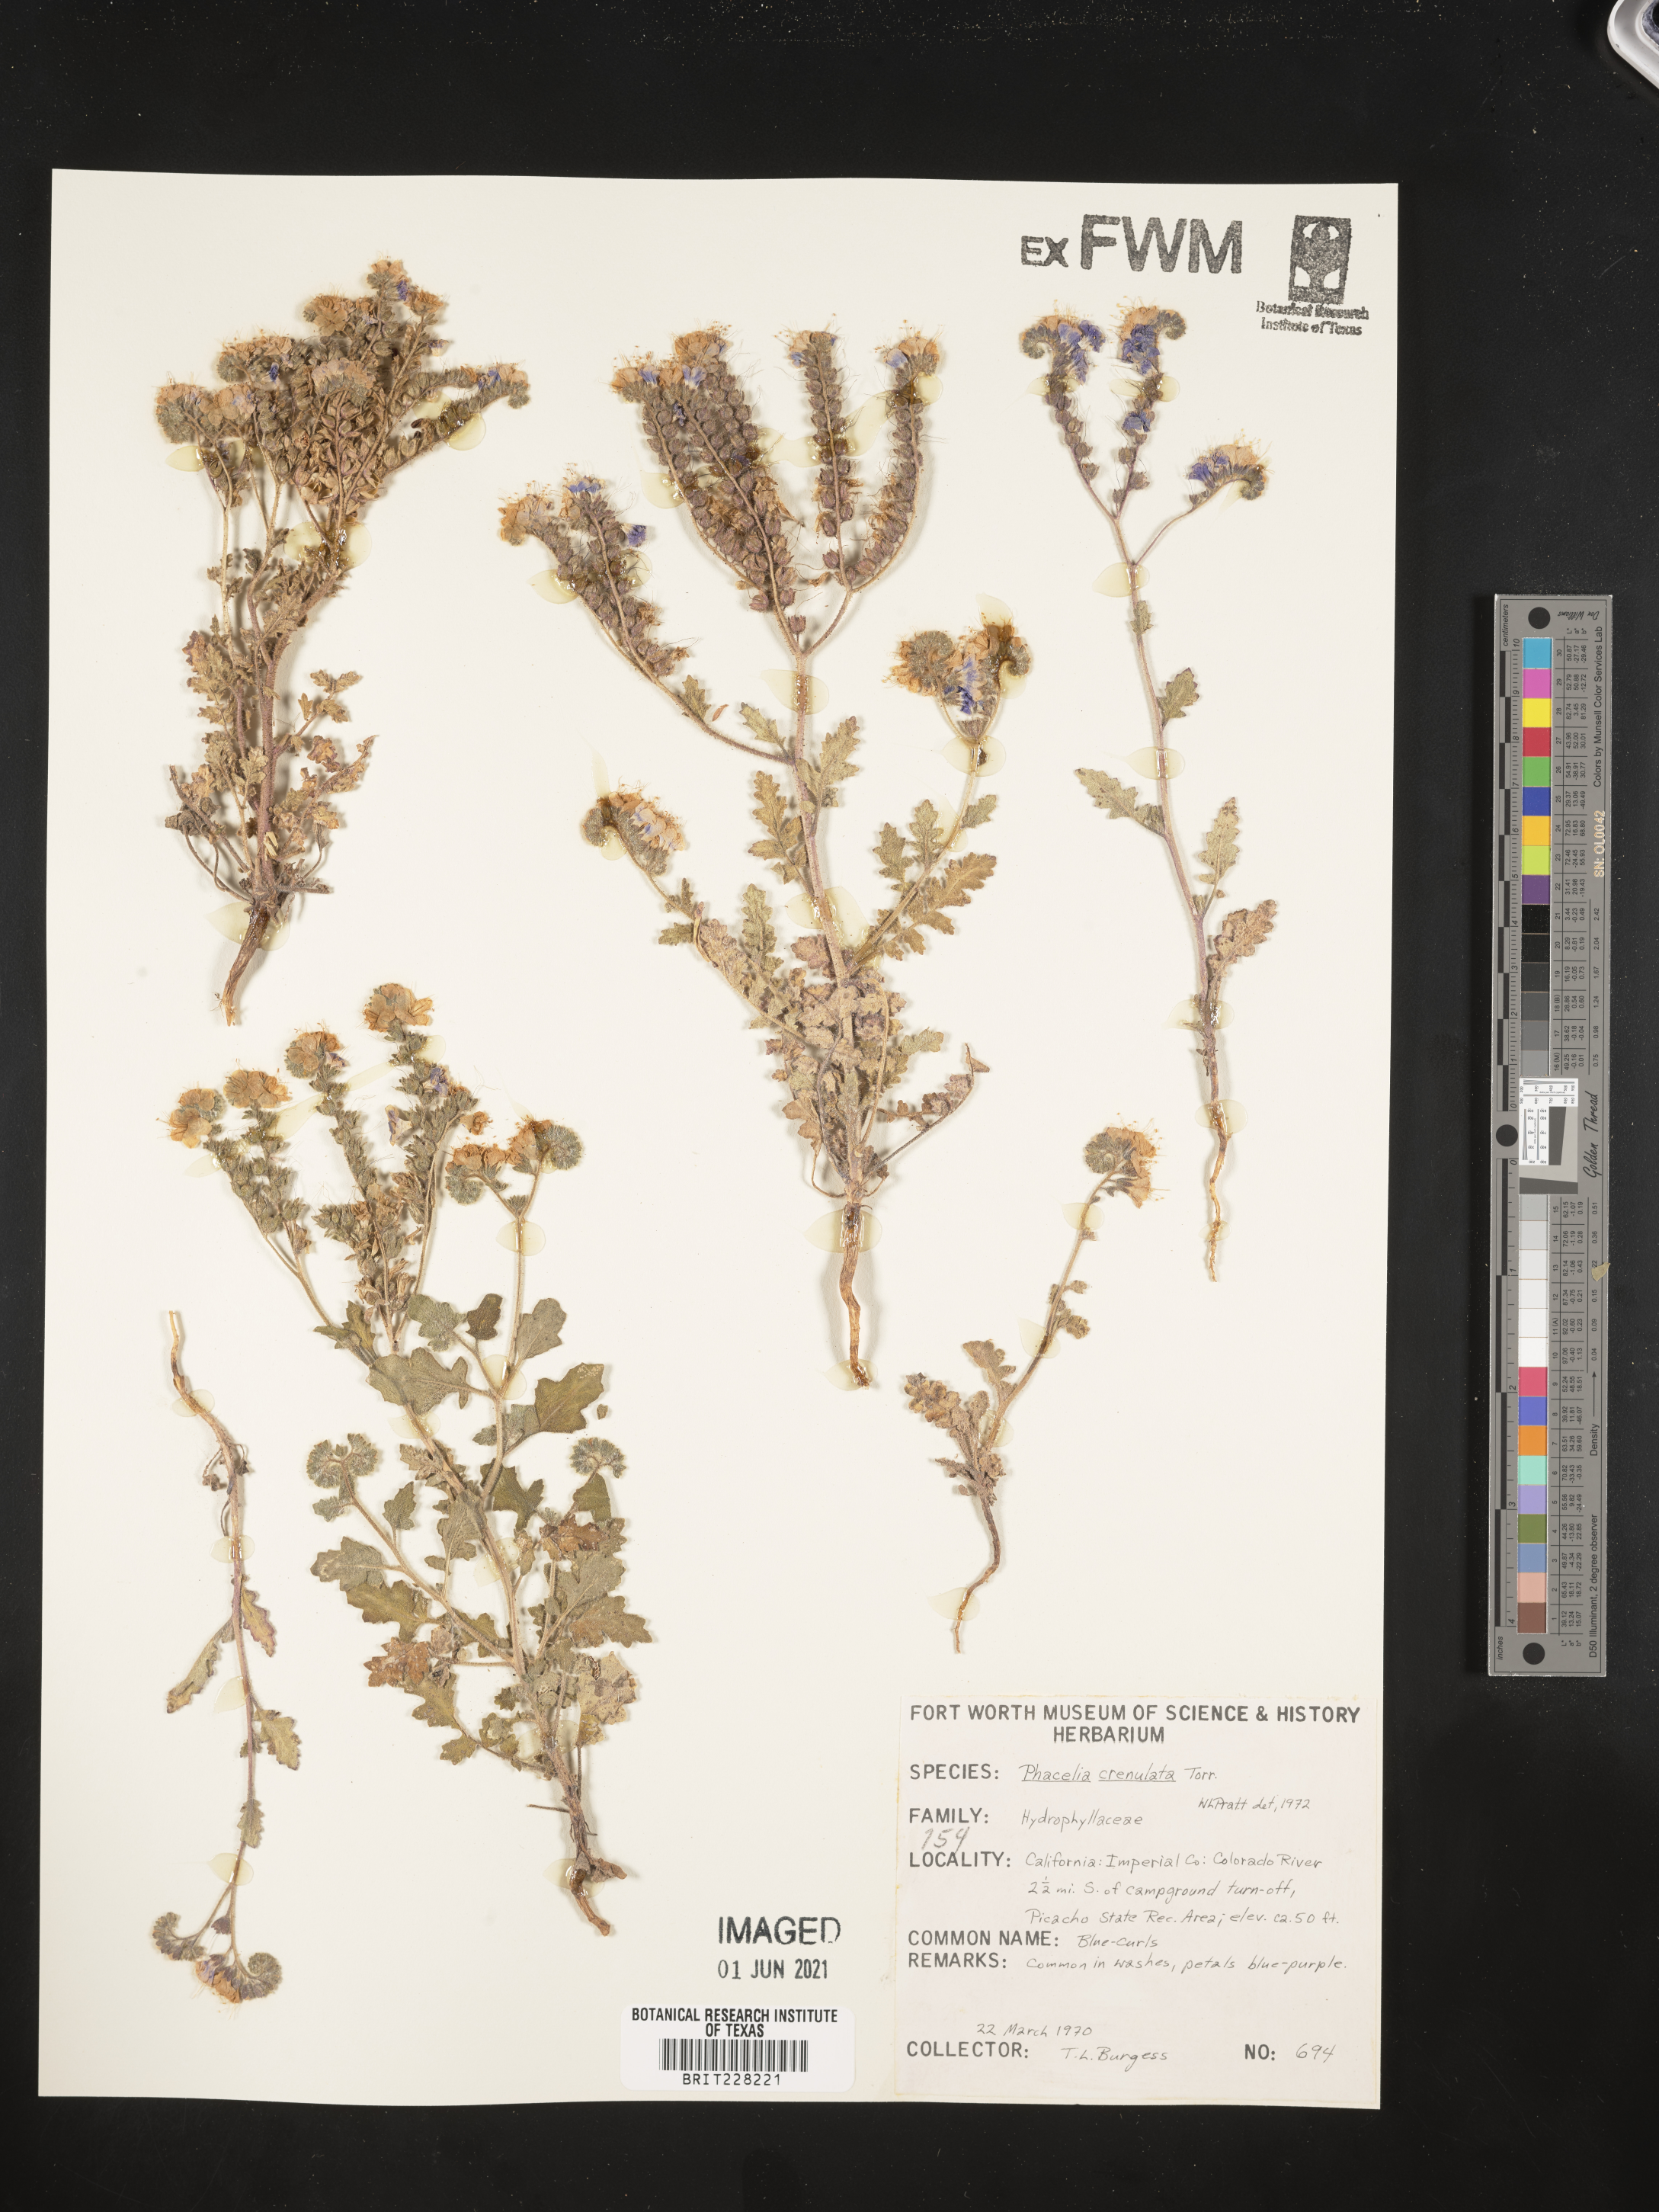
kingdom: Plantae
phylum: Tracheophyta
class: Magnoliopsida
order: Boraginales
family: Hydrophyllaceae
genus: Phacelia
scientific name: Phacelia crenulata
